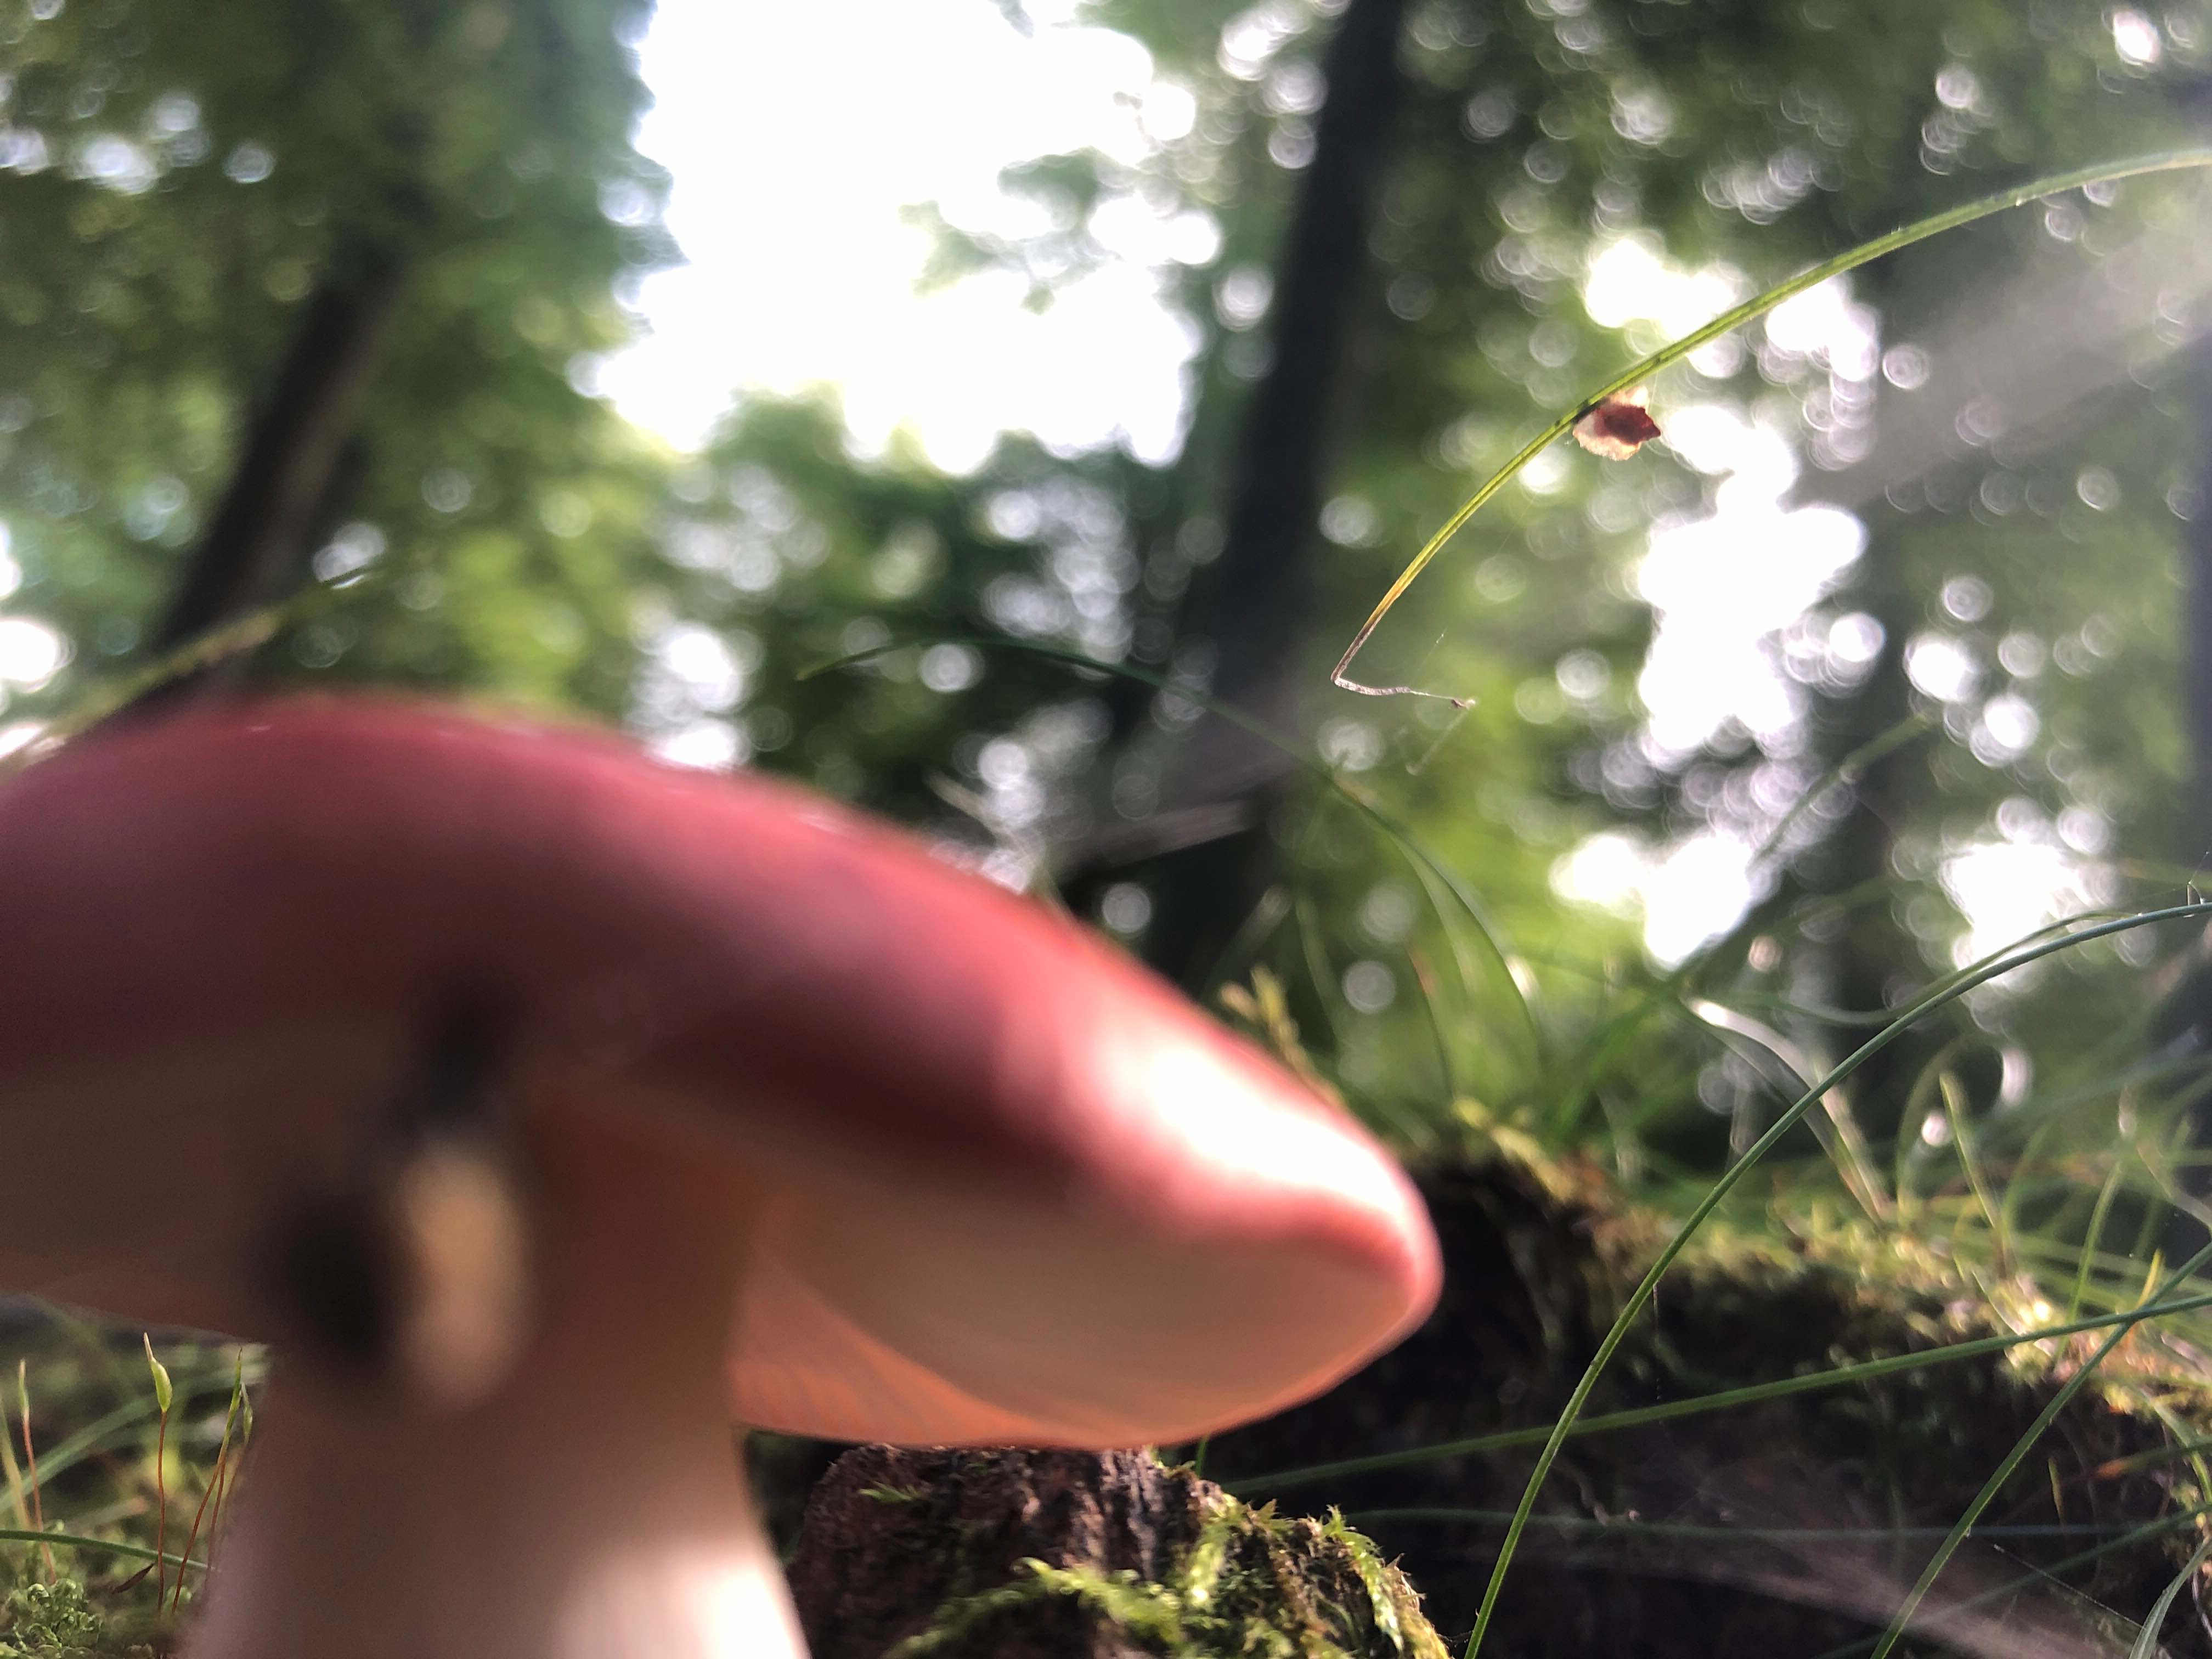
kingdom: Fungi
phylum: Basidiomycota
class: Agaricomycetes
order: Russulales
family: Russulaceae
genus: Russula
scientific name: Russula nobilis
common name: lille gift-skørhat
